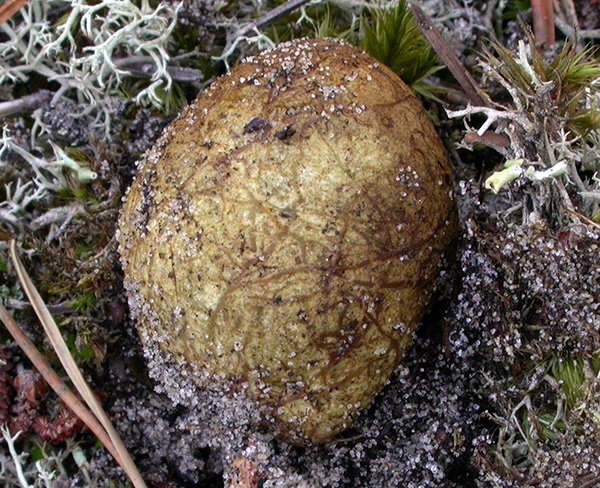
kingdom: Fungi
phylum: Basidiomycota
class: Agaricomycetes
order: Boletales
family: Rhizopogonaceae
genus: Rhizopogon
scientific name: Rhizopogon obtextus
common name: gul skægtrøffel
